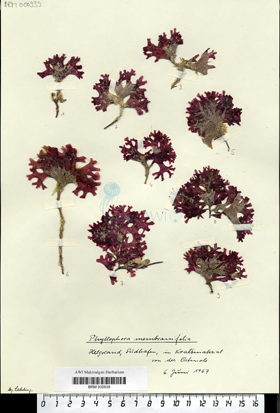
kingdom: Plantae
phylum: Rhodophyta
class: Florideophyceae
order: Gigartinales
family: Phyllophoraceae
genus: Phyllophora
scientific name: Phyllophora
